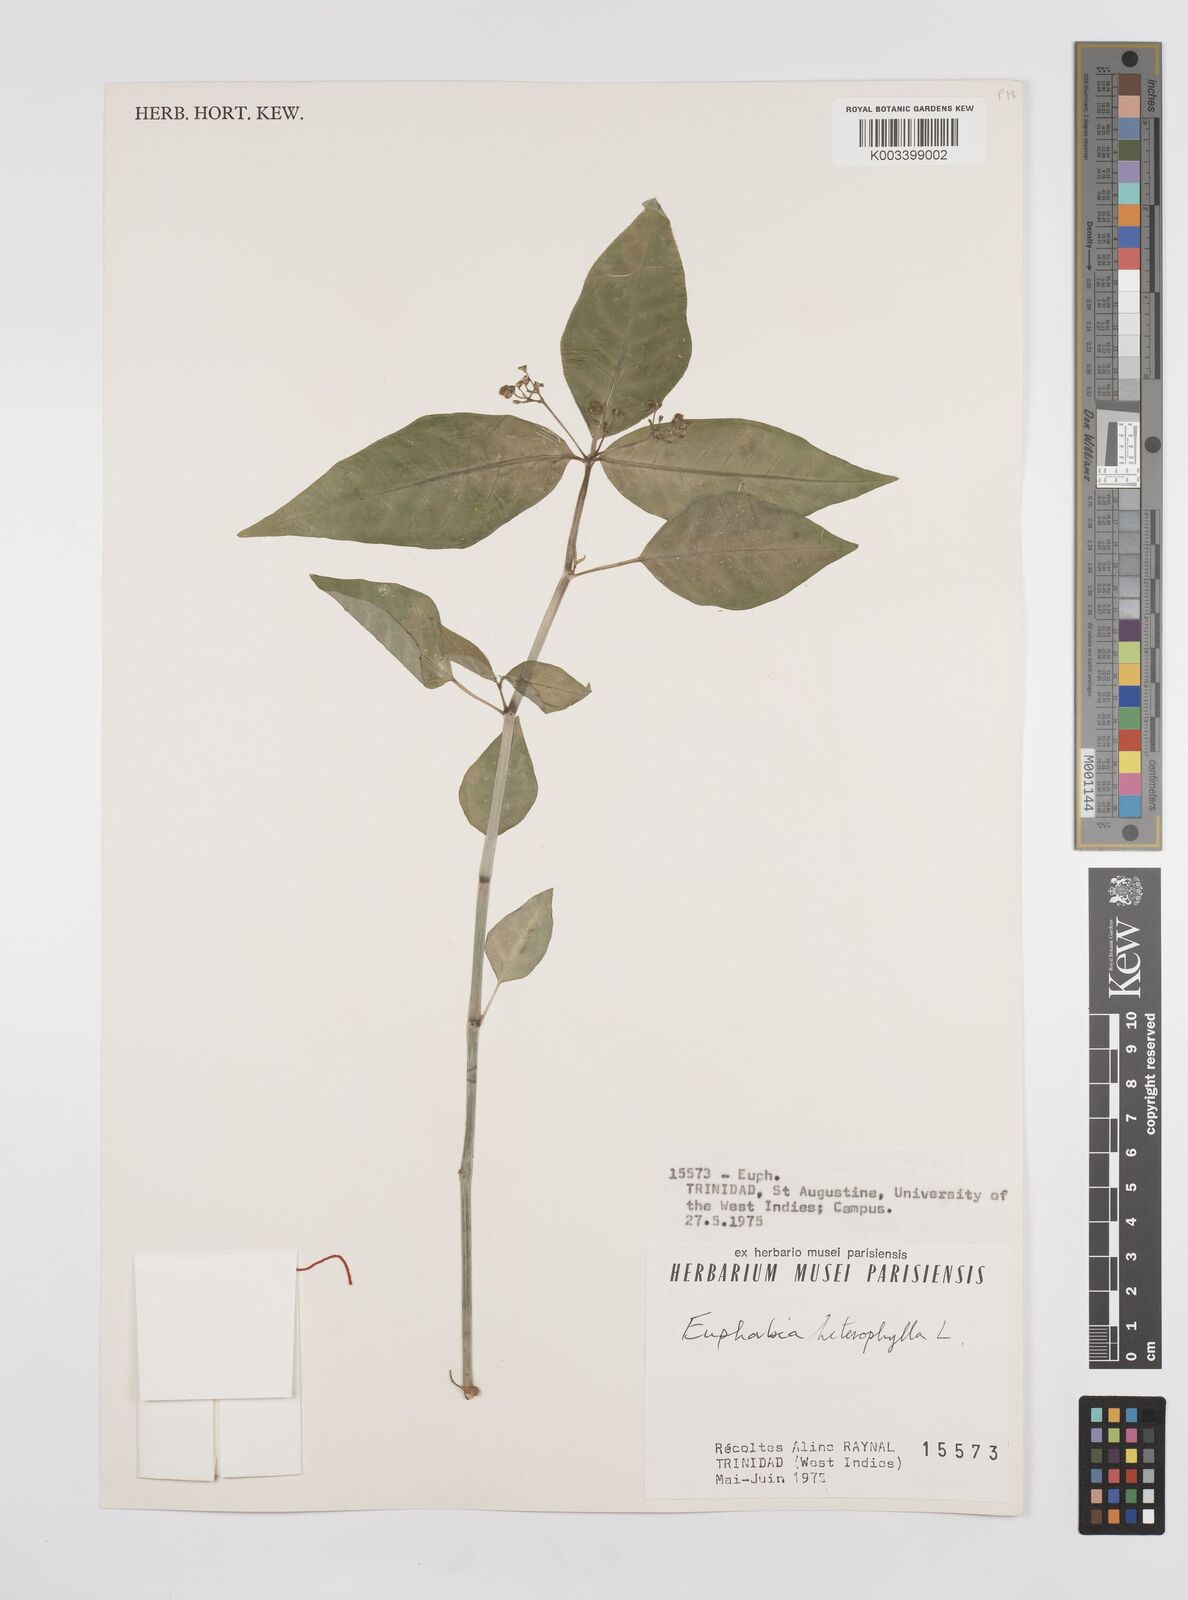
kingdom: Plantae
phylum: Tracheophyta
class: Magnoliopsida
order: Malpighiales
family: Euphorbiaceae
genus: Euphorbia
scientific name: Euphorbia heterophylla
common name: Mexican fireplant
